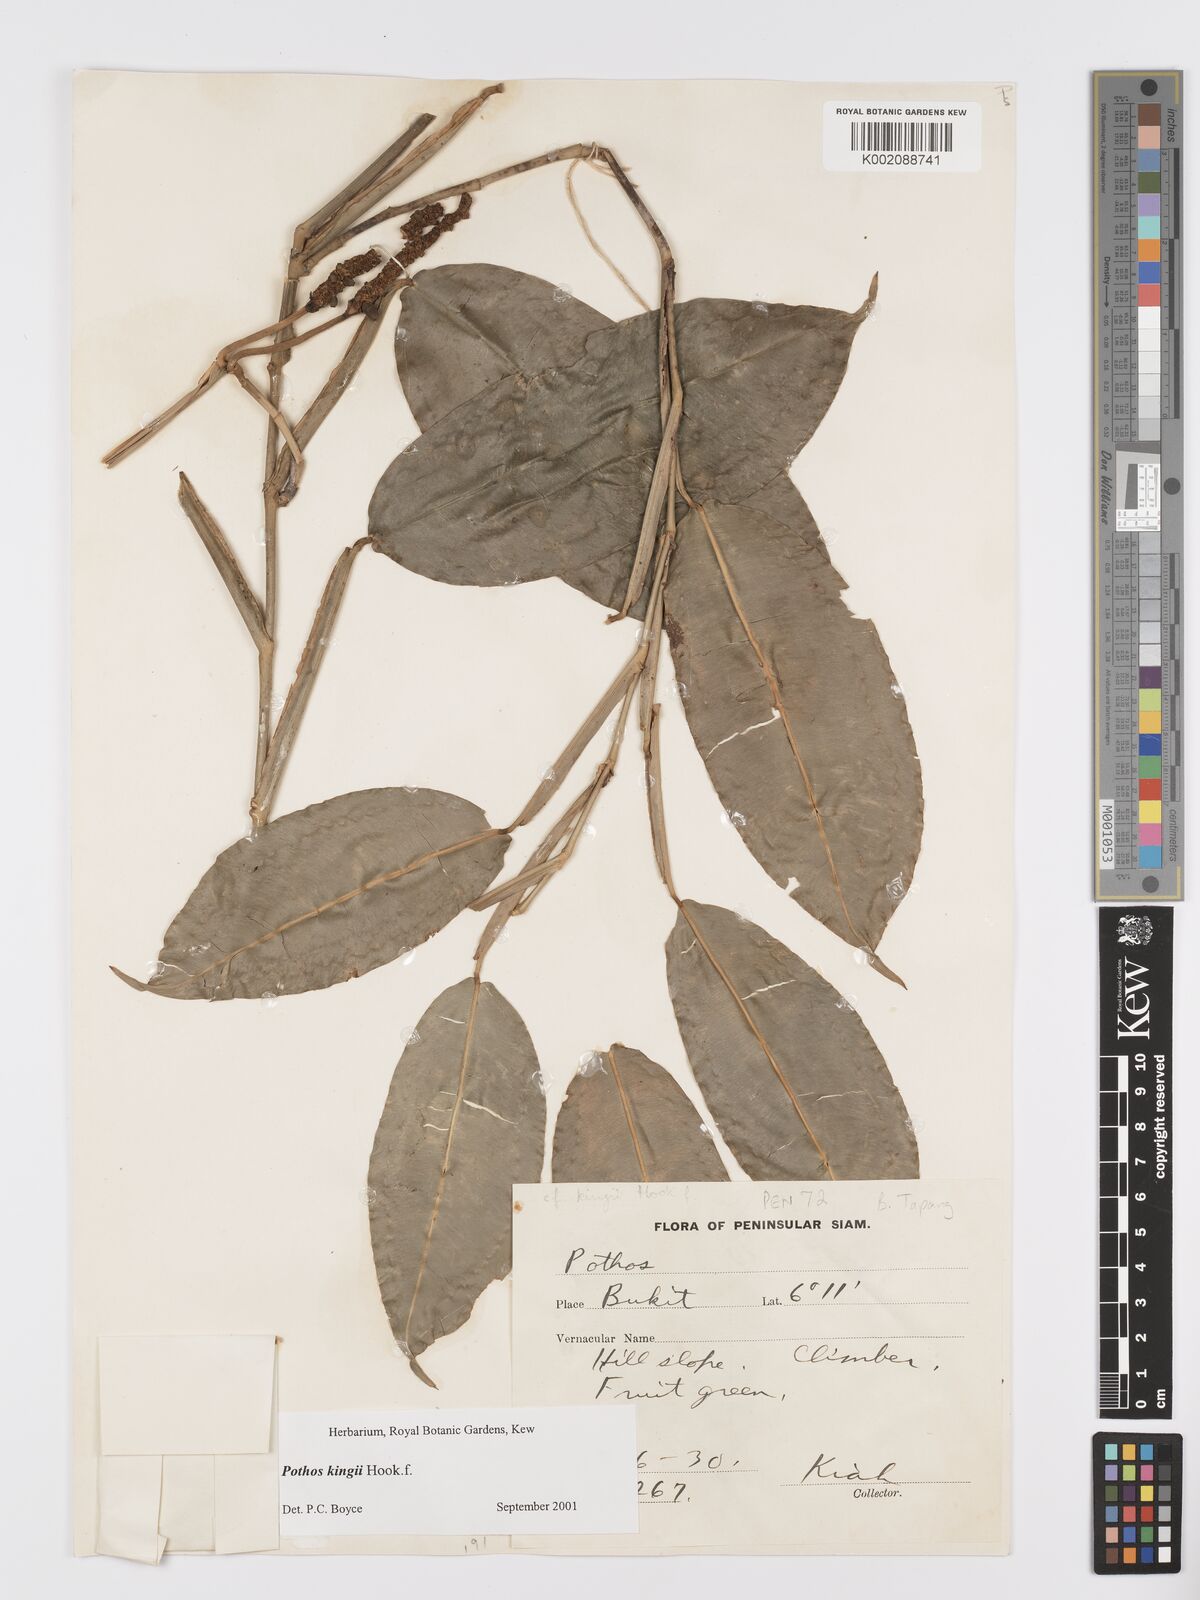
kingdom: Plantae
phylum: Tracheophyta
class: Liliopsida
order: Alismatales
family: Araceae
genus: Pothos
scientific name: Pothos kingii
